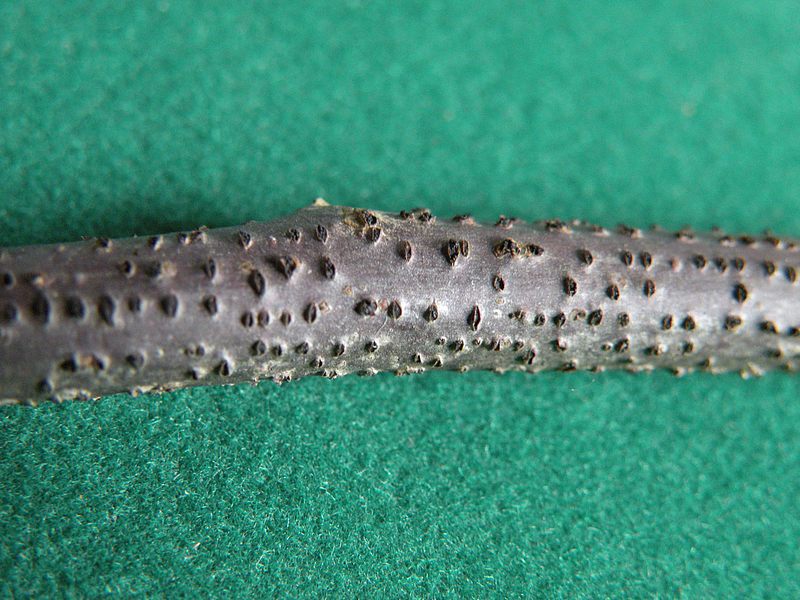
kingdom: Fungi
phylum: Ascomycota
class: Sordariomycetes
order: Diaporthales
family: Diaporthaceae
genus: Diaporthe
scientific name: Diaporthe strumella
